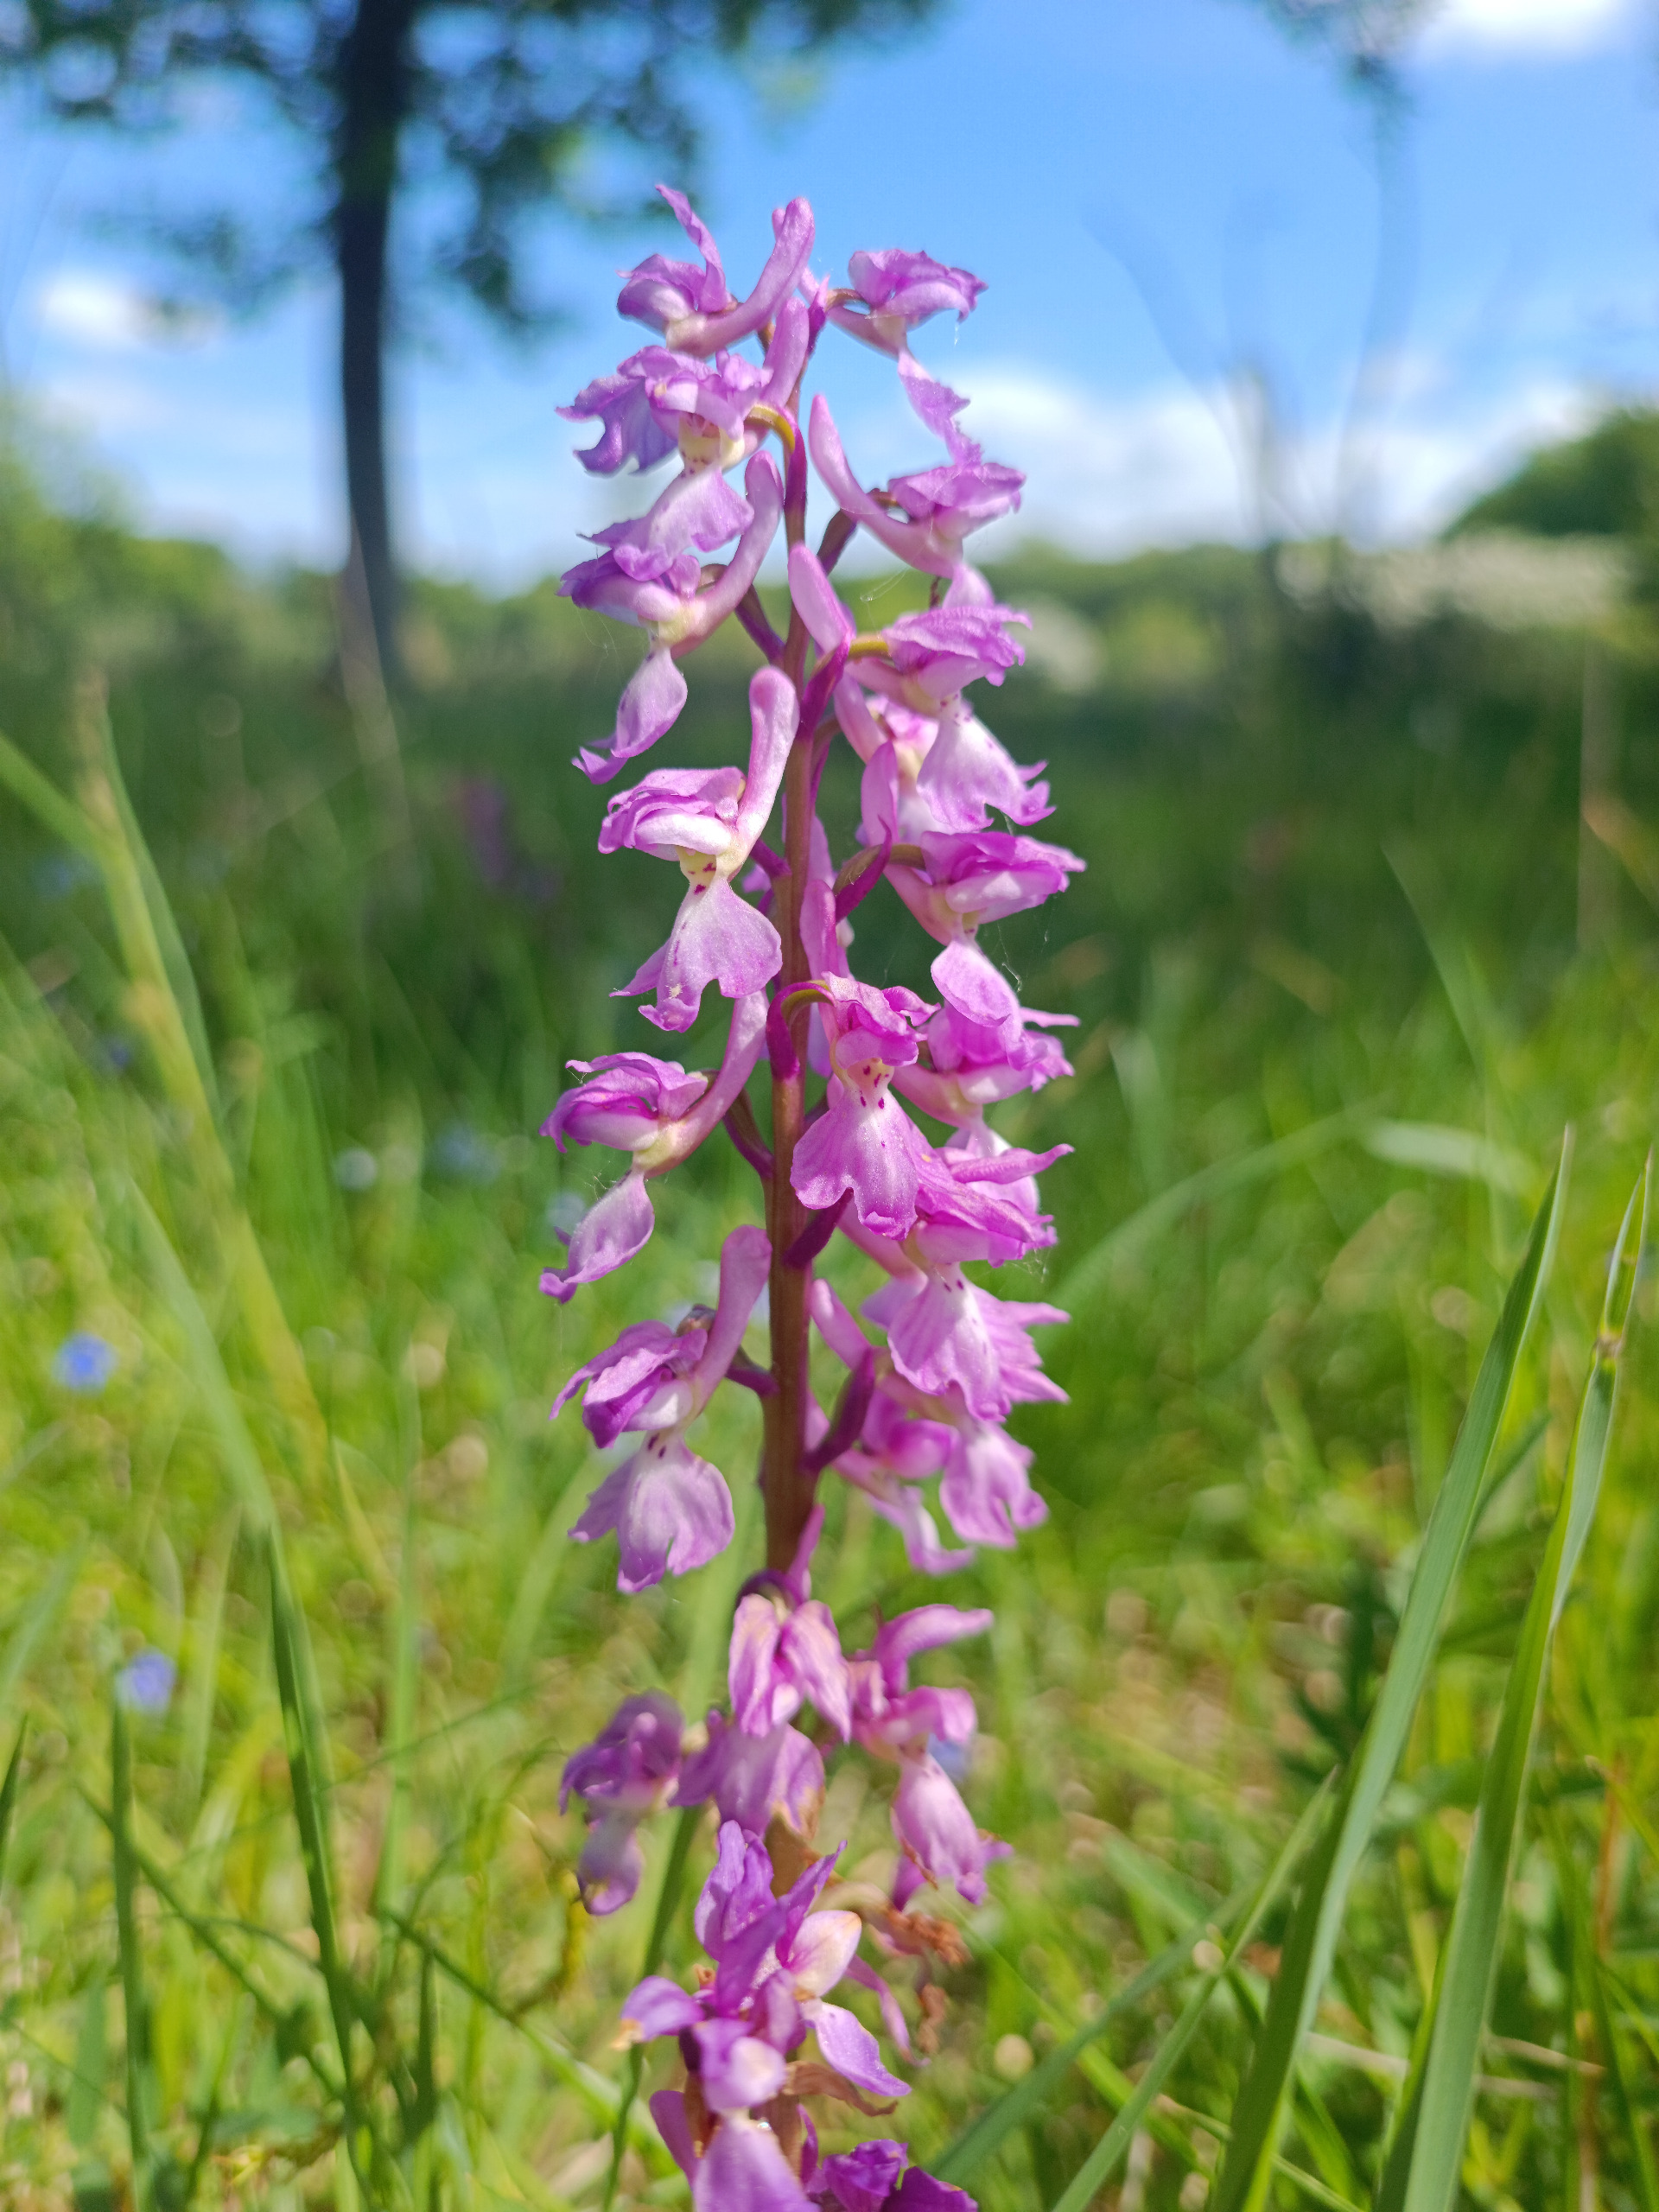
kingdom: Plantae
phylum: Tracheophyta
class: Liliopsida
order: Asparagales
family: Orchidaceae
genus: Orchis
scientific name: Orchis mascula
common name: Tyndakset gøgeurt
